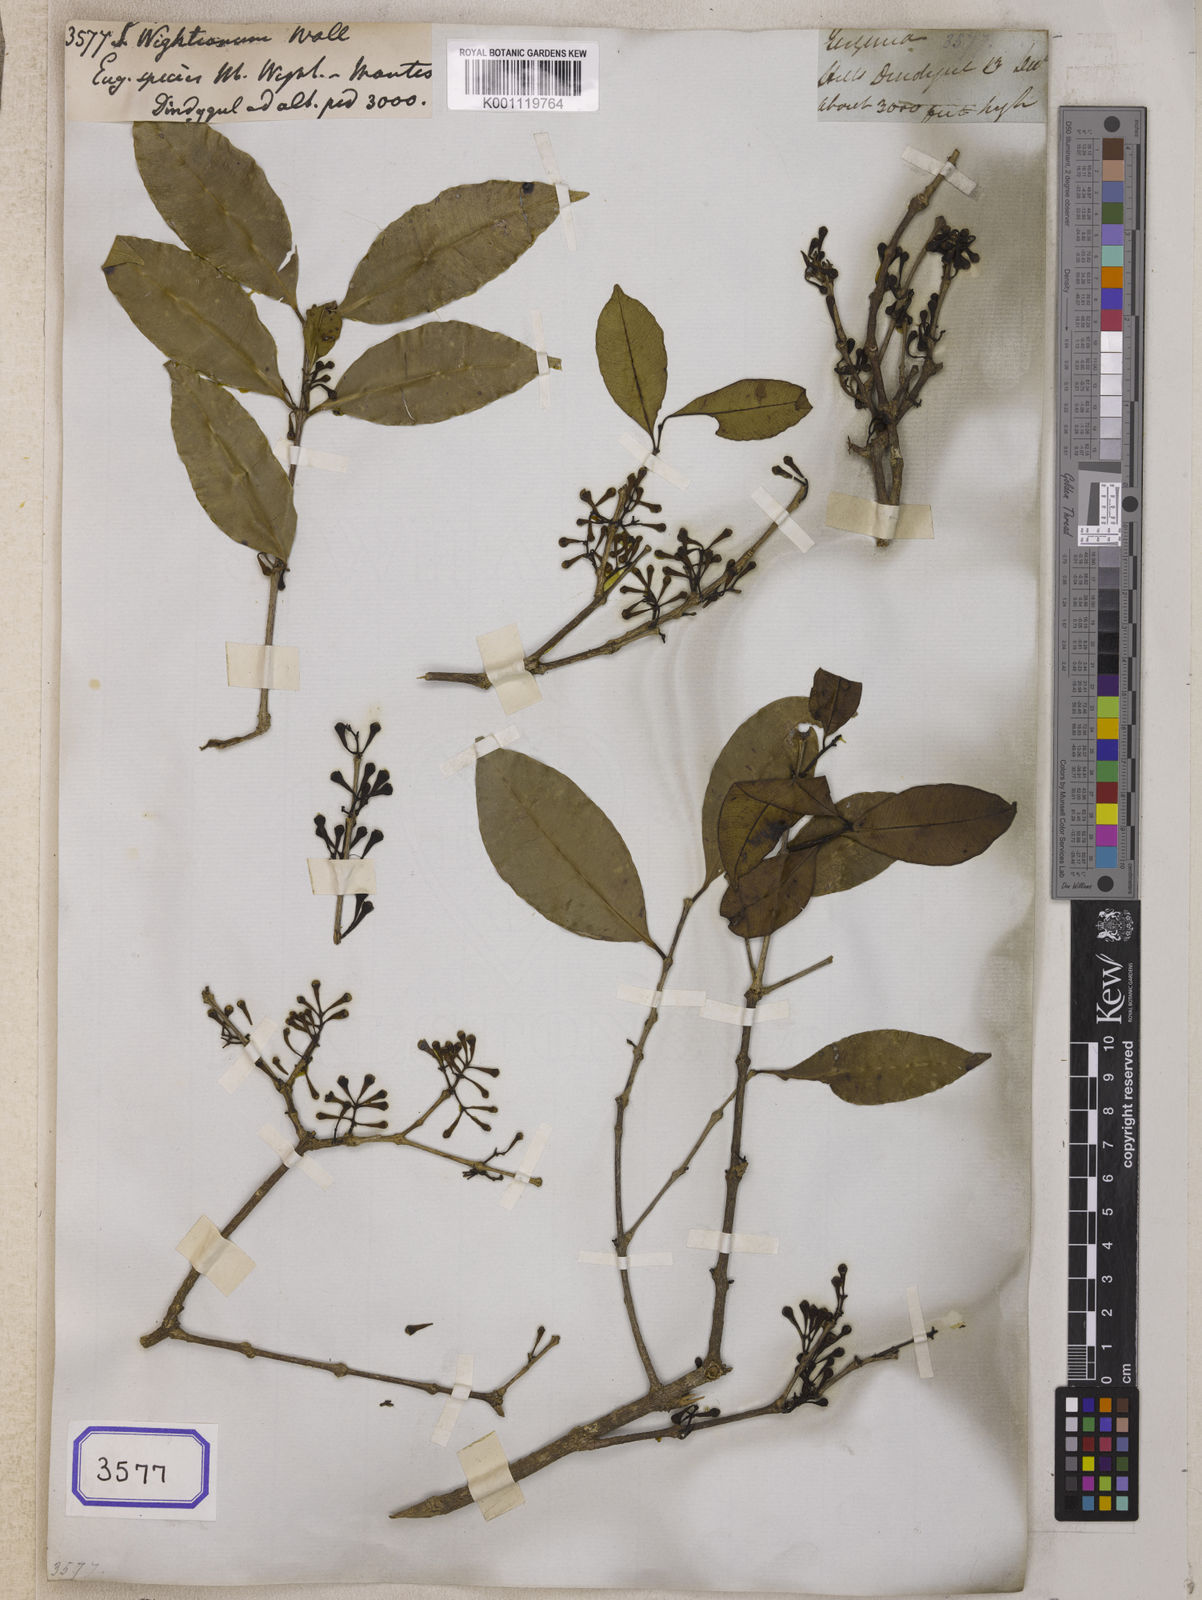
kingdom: Plantae
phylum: Tracheophyta
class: Magnoliopsida
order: Myrtales
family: Myrtaceae
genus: Syzygium
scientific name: Syzygium
